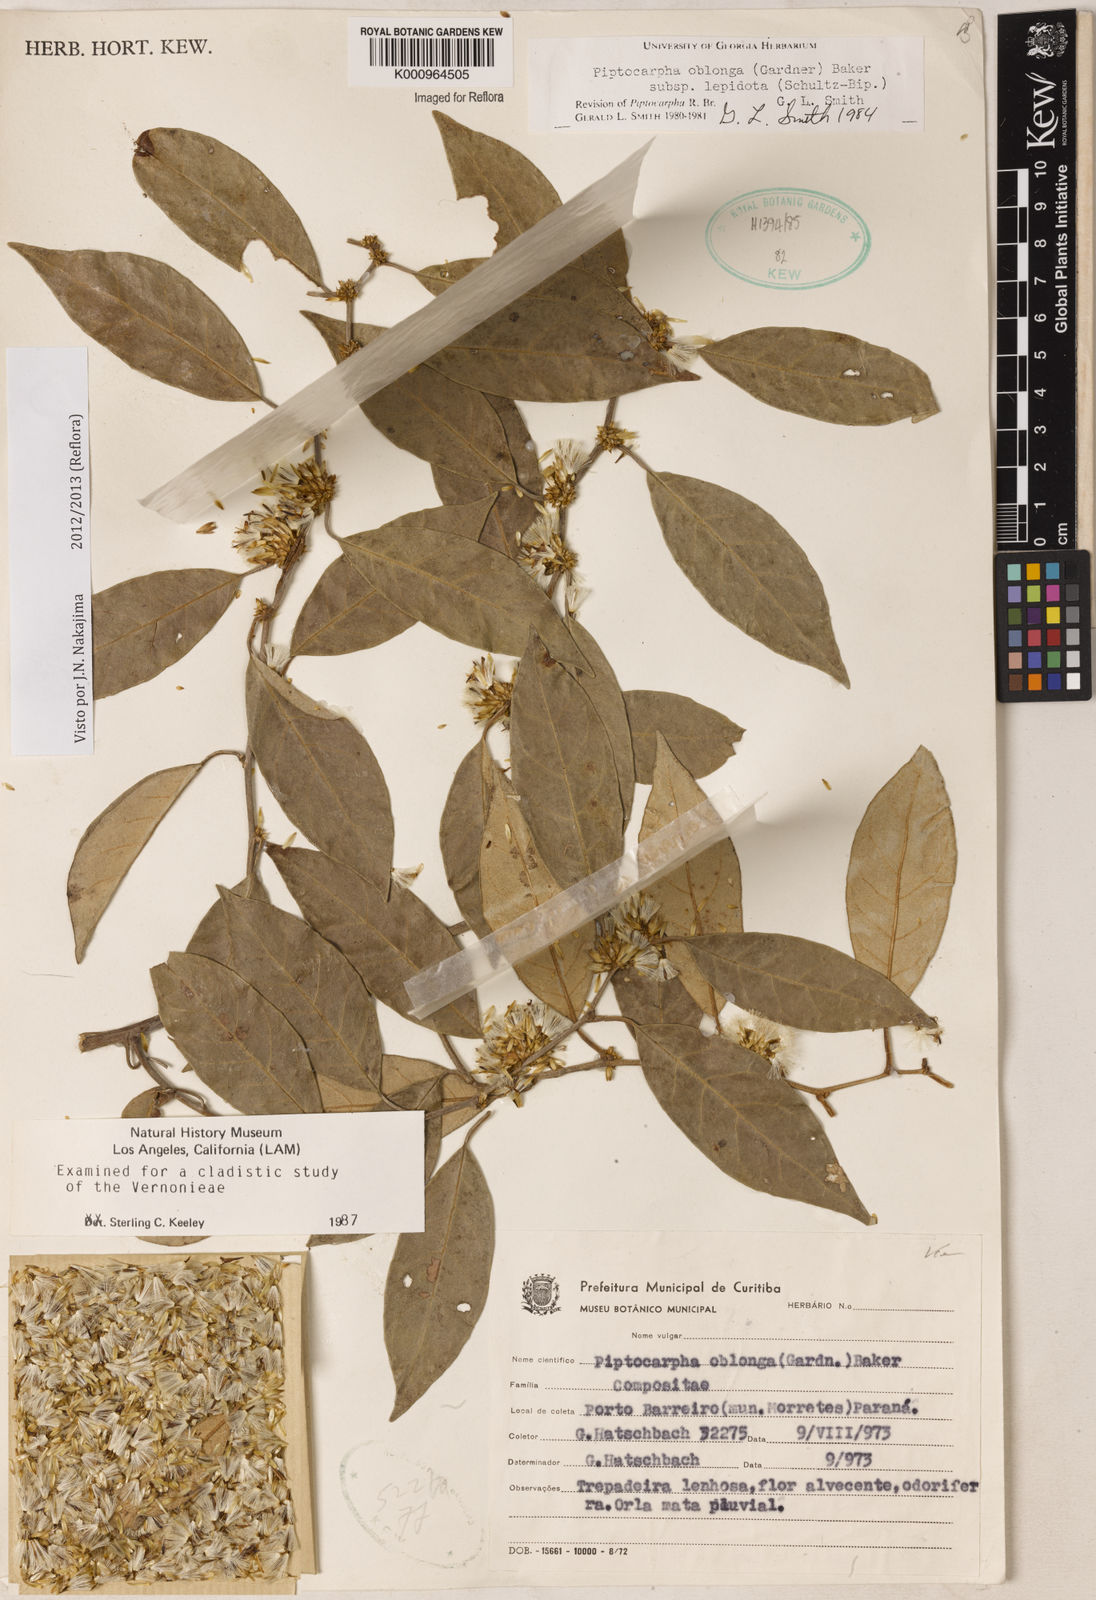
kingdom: Plantae
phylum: Tracheophyta
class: Magnoliopsida
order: Asterales
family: Asteraceae
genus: Piptocarpha
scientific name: Piptocarpha oblonga
